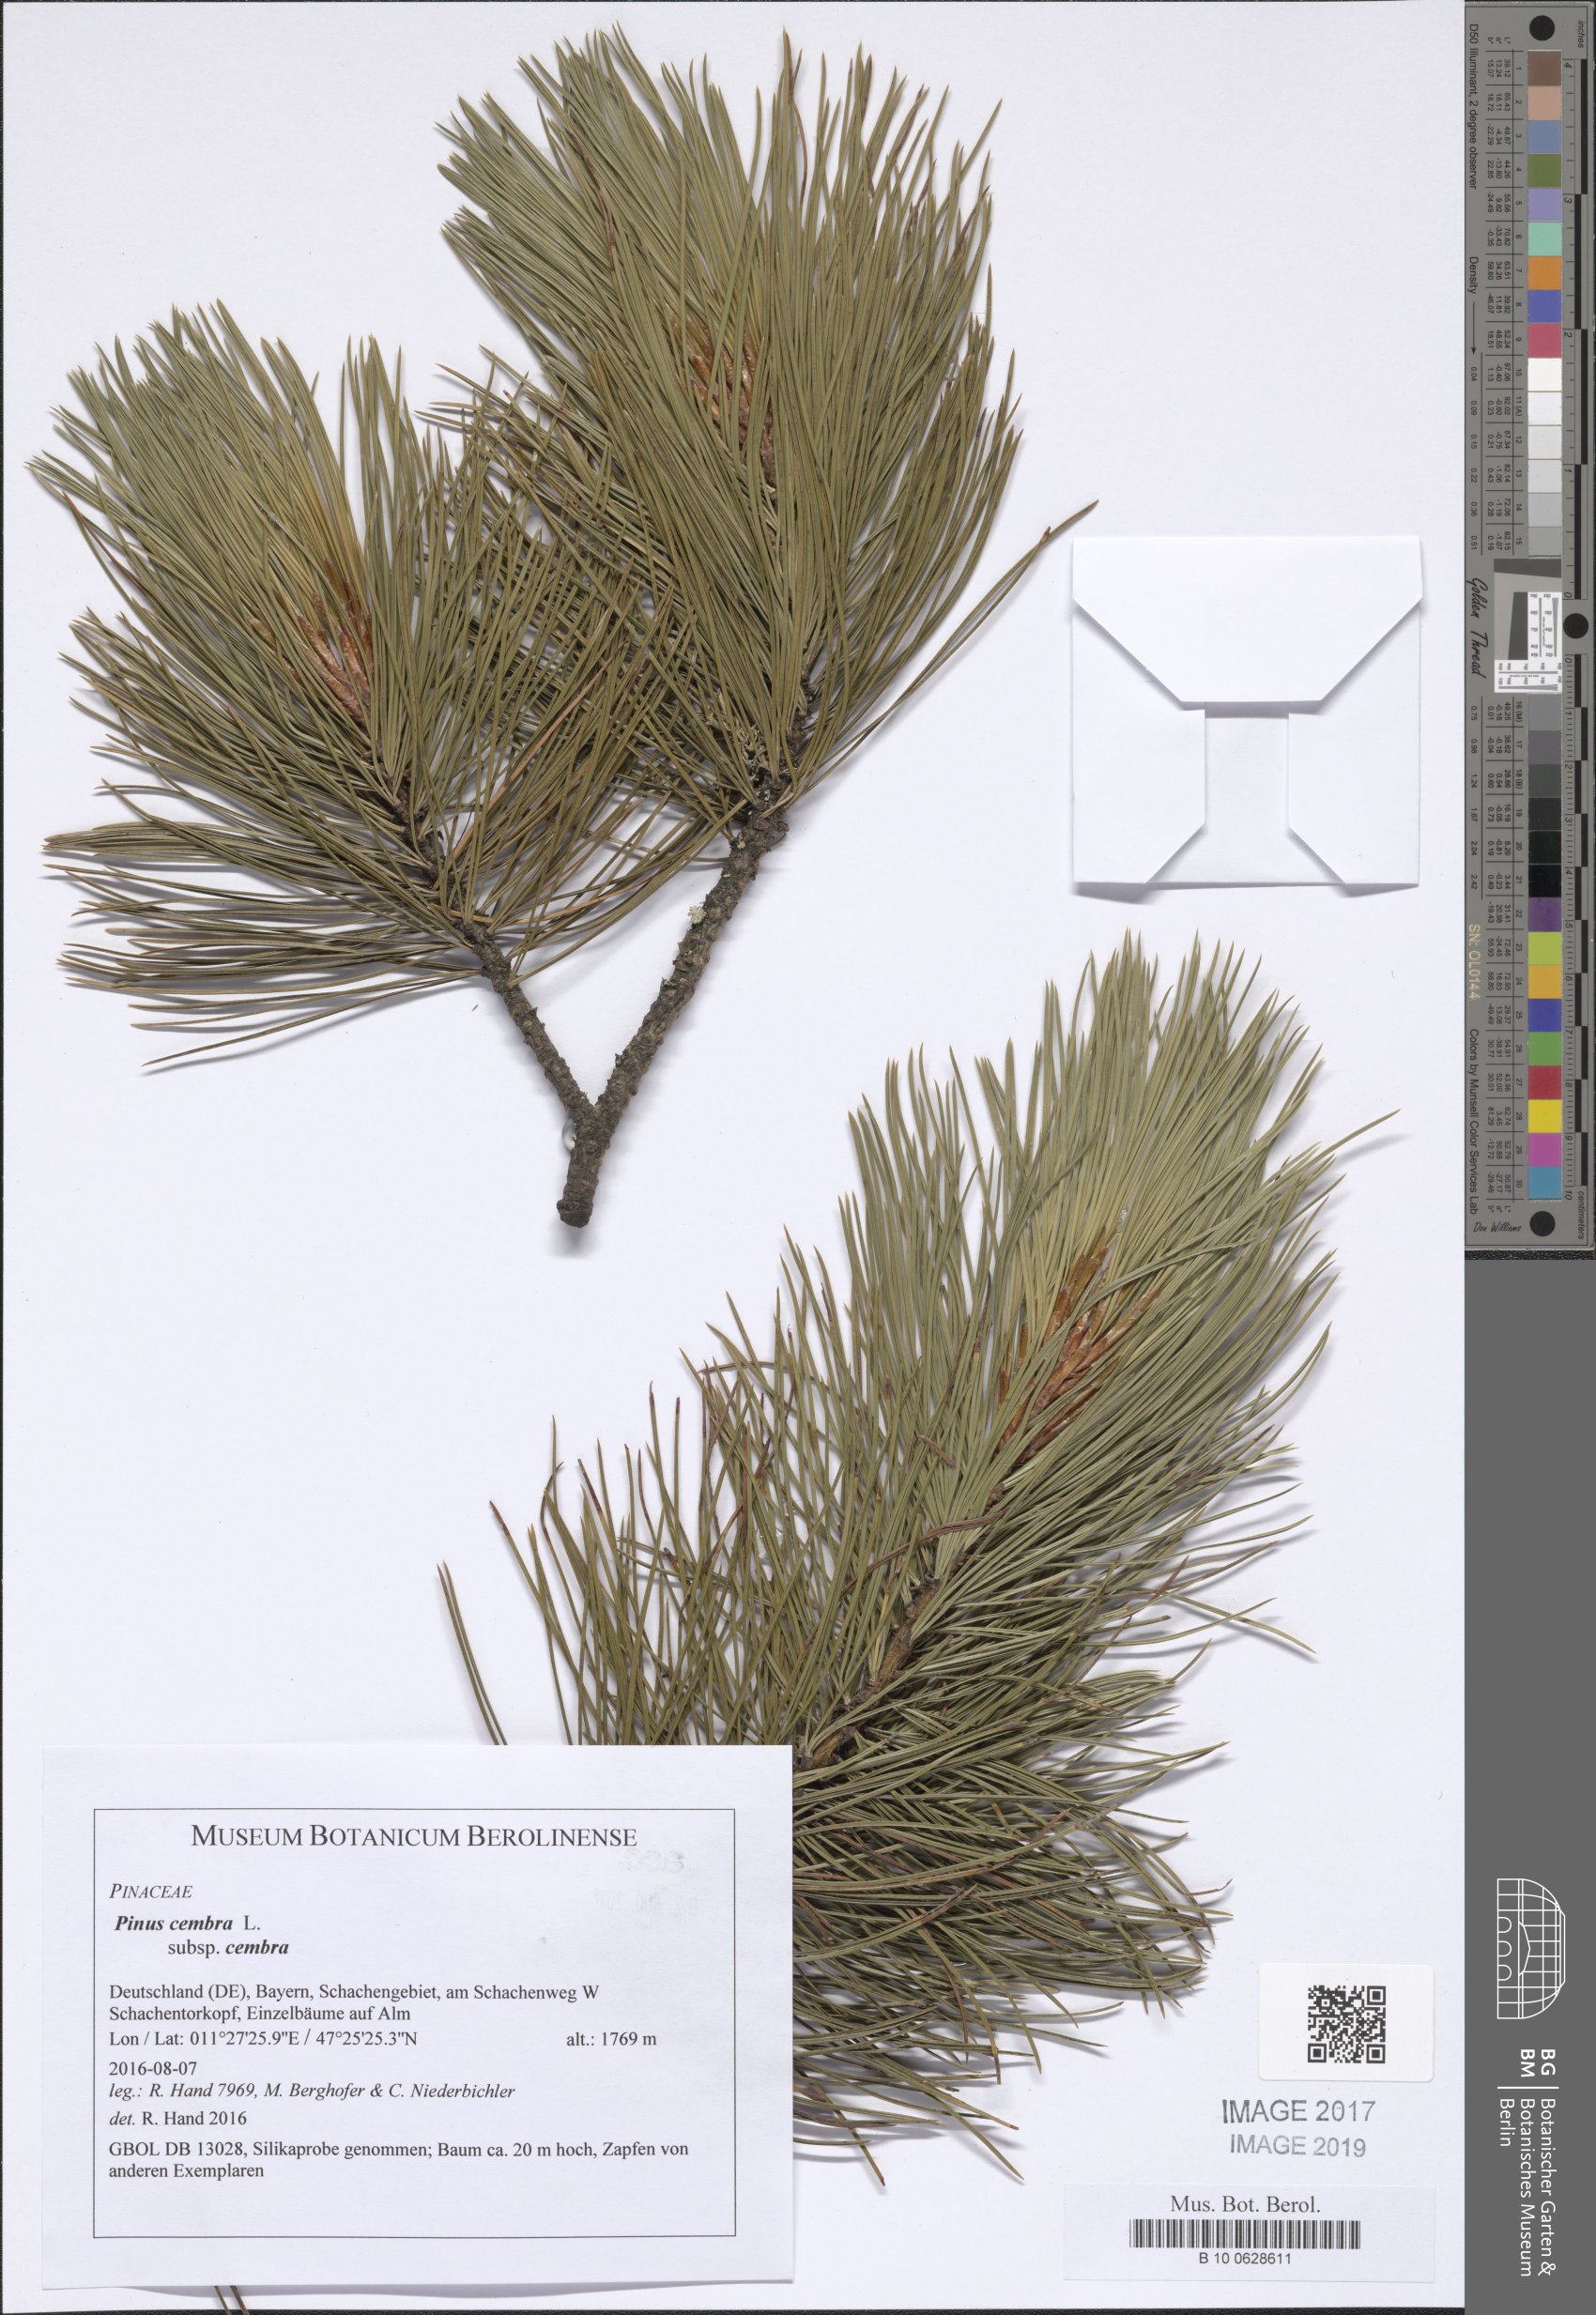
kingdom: Plantae
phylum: Tracheophyta
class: Pinopsida
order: Pinales
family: Pinaceae
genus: Pinus
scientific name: Pinus cembra
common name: Arolla pine
